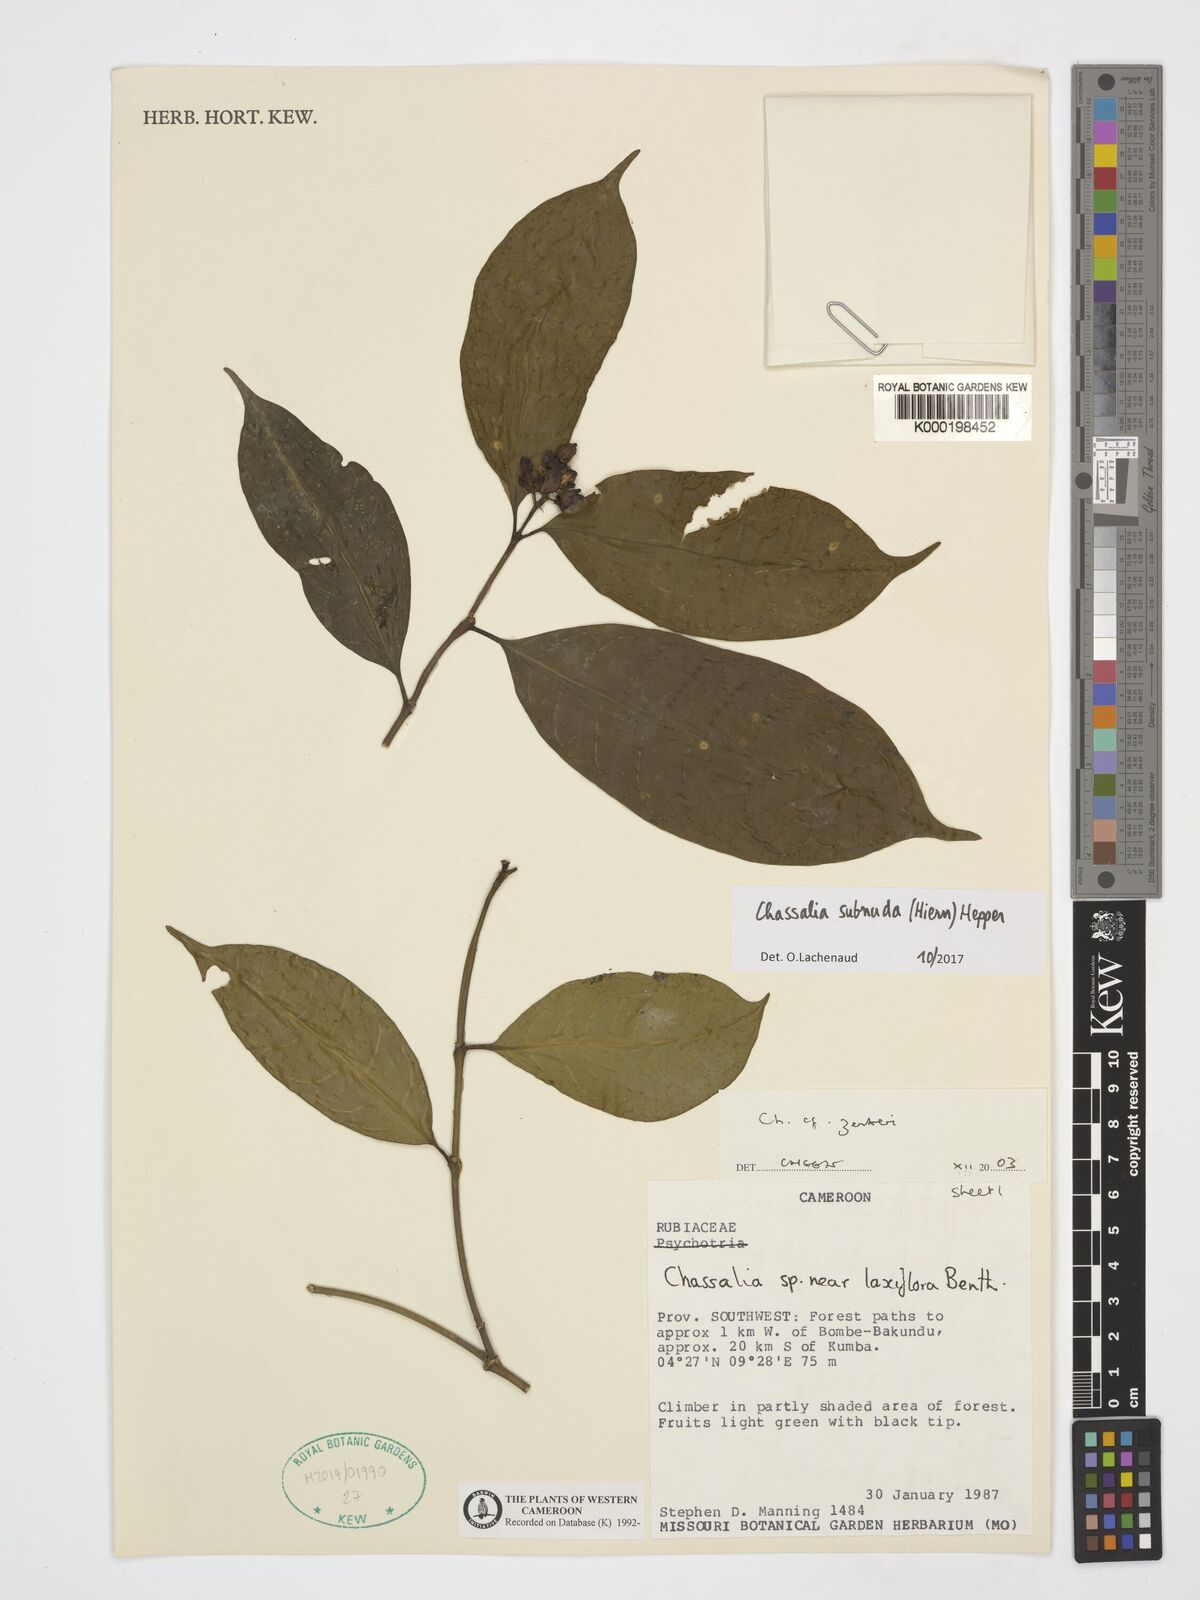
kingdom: Plantae
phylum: Tracheophyta
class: Magnoliopsida
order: Gentianales
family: Rubiaceae
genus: Chassalia
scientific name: Chassalia zenkeri
